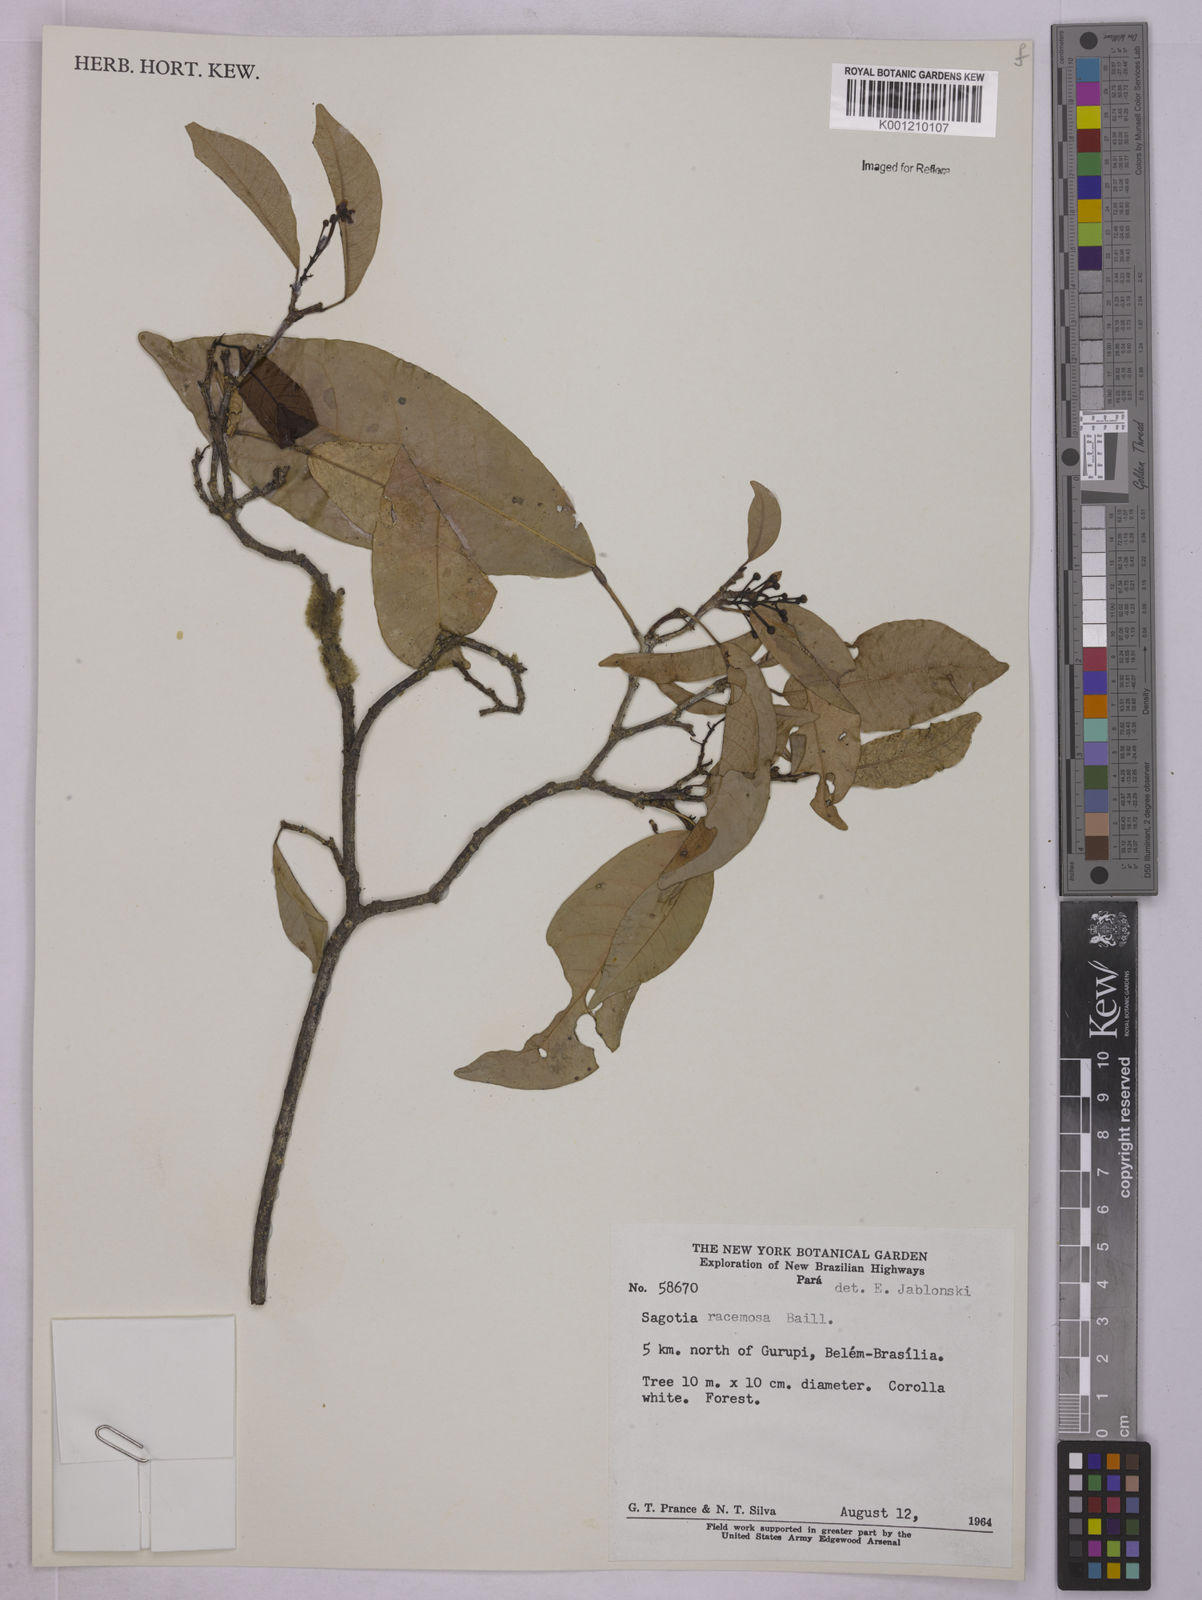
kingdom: Plantae
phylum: Tracheophyta
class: Magnoliopsida
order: Malpighiales
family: Euphorbiaceae
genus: Sagotia
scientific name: Sagotia racemosa
